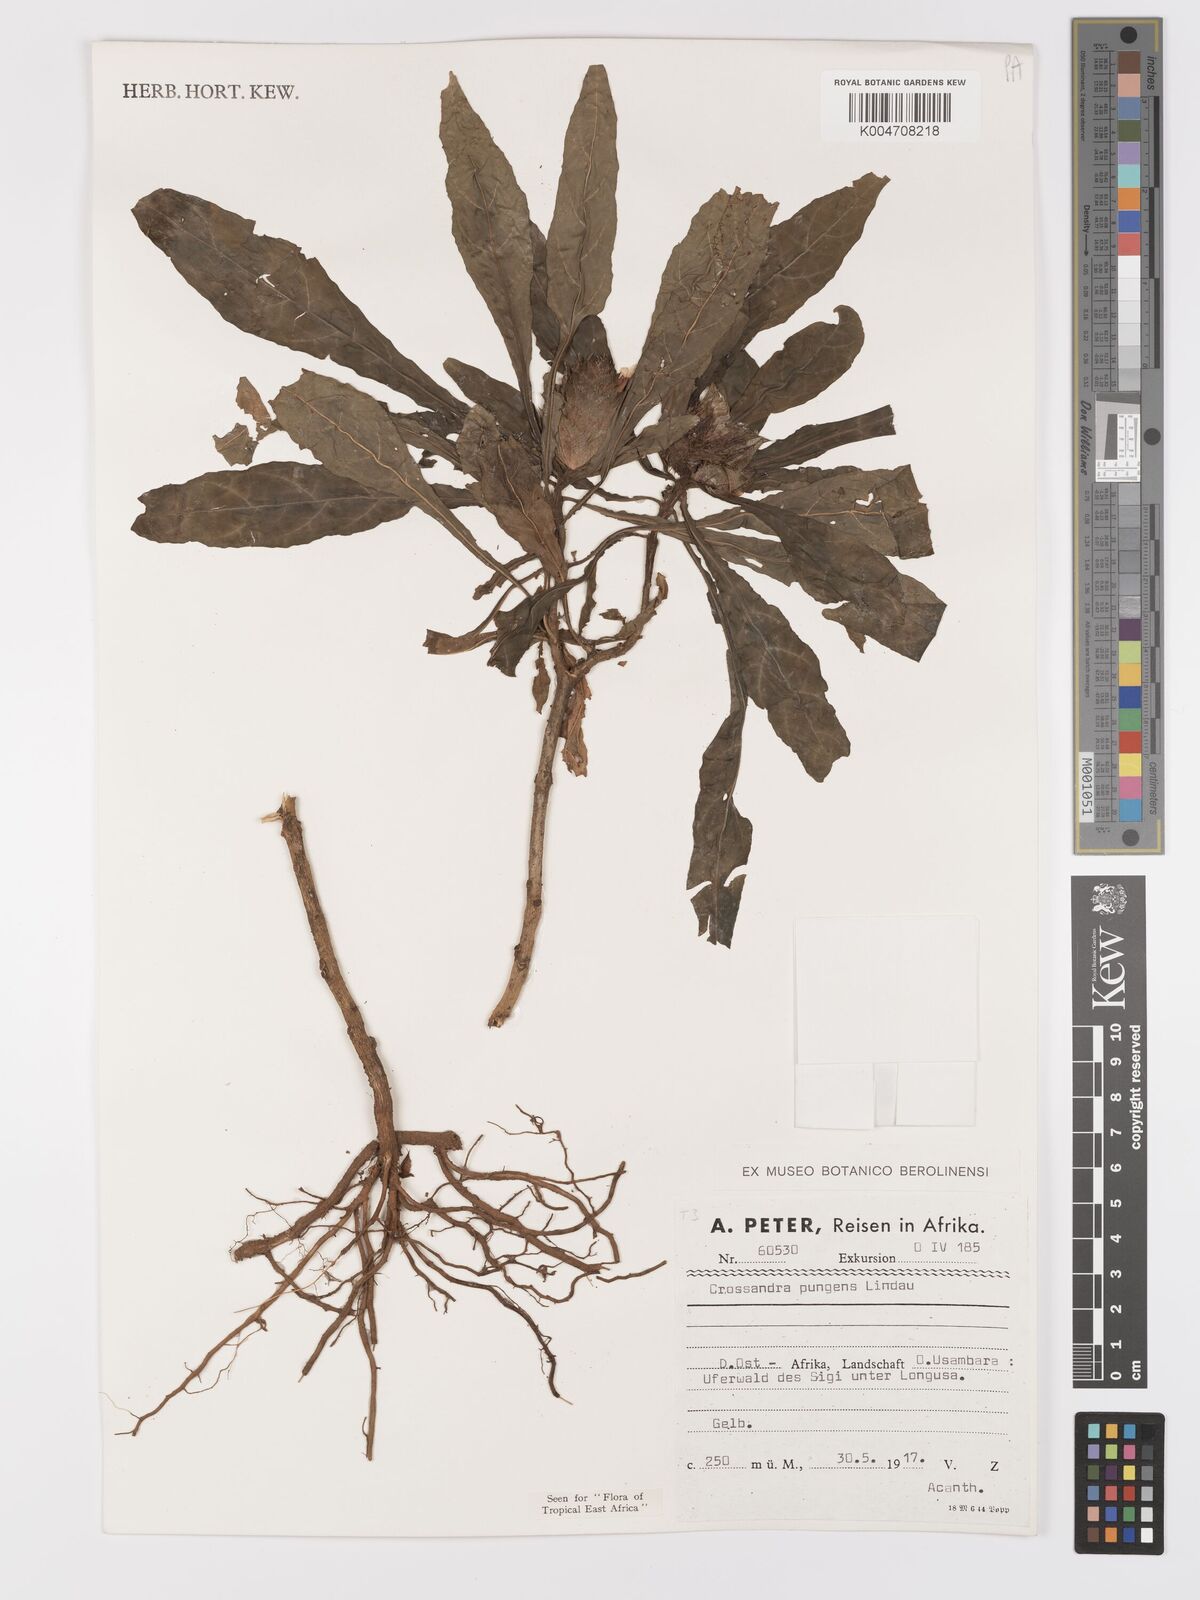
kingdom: Plantae
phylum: Tracheophyta
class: Magnoliopsida
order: Lamiales
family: Acanthaceae
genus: Crossandra
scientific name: Crossandra pungens
